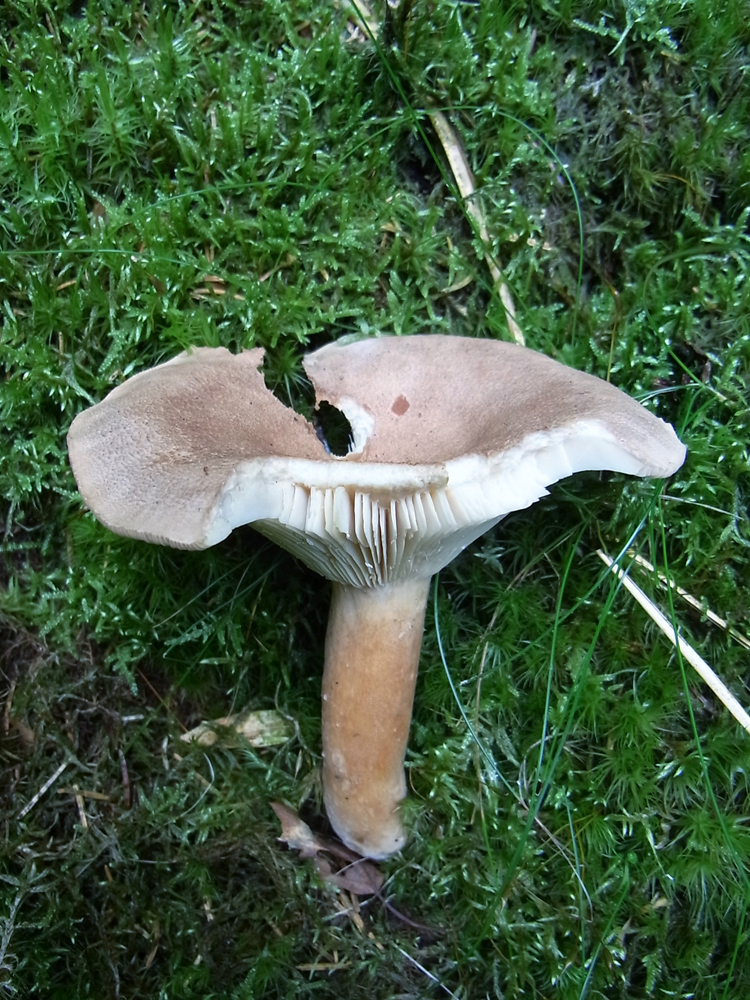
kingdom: Fungi
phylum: Basidiomycota
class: Agaricomycetes
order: Russulales
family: Russulaceae
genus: Lactarius
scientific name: Lactarius helvus
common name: Fenugreek milkcap
